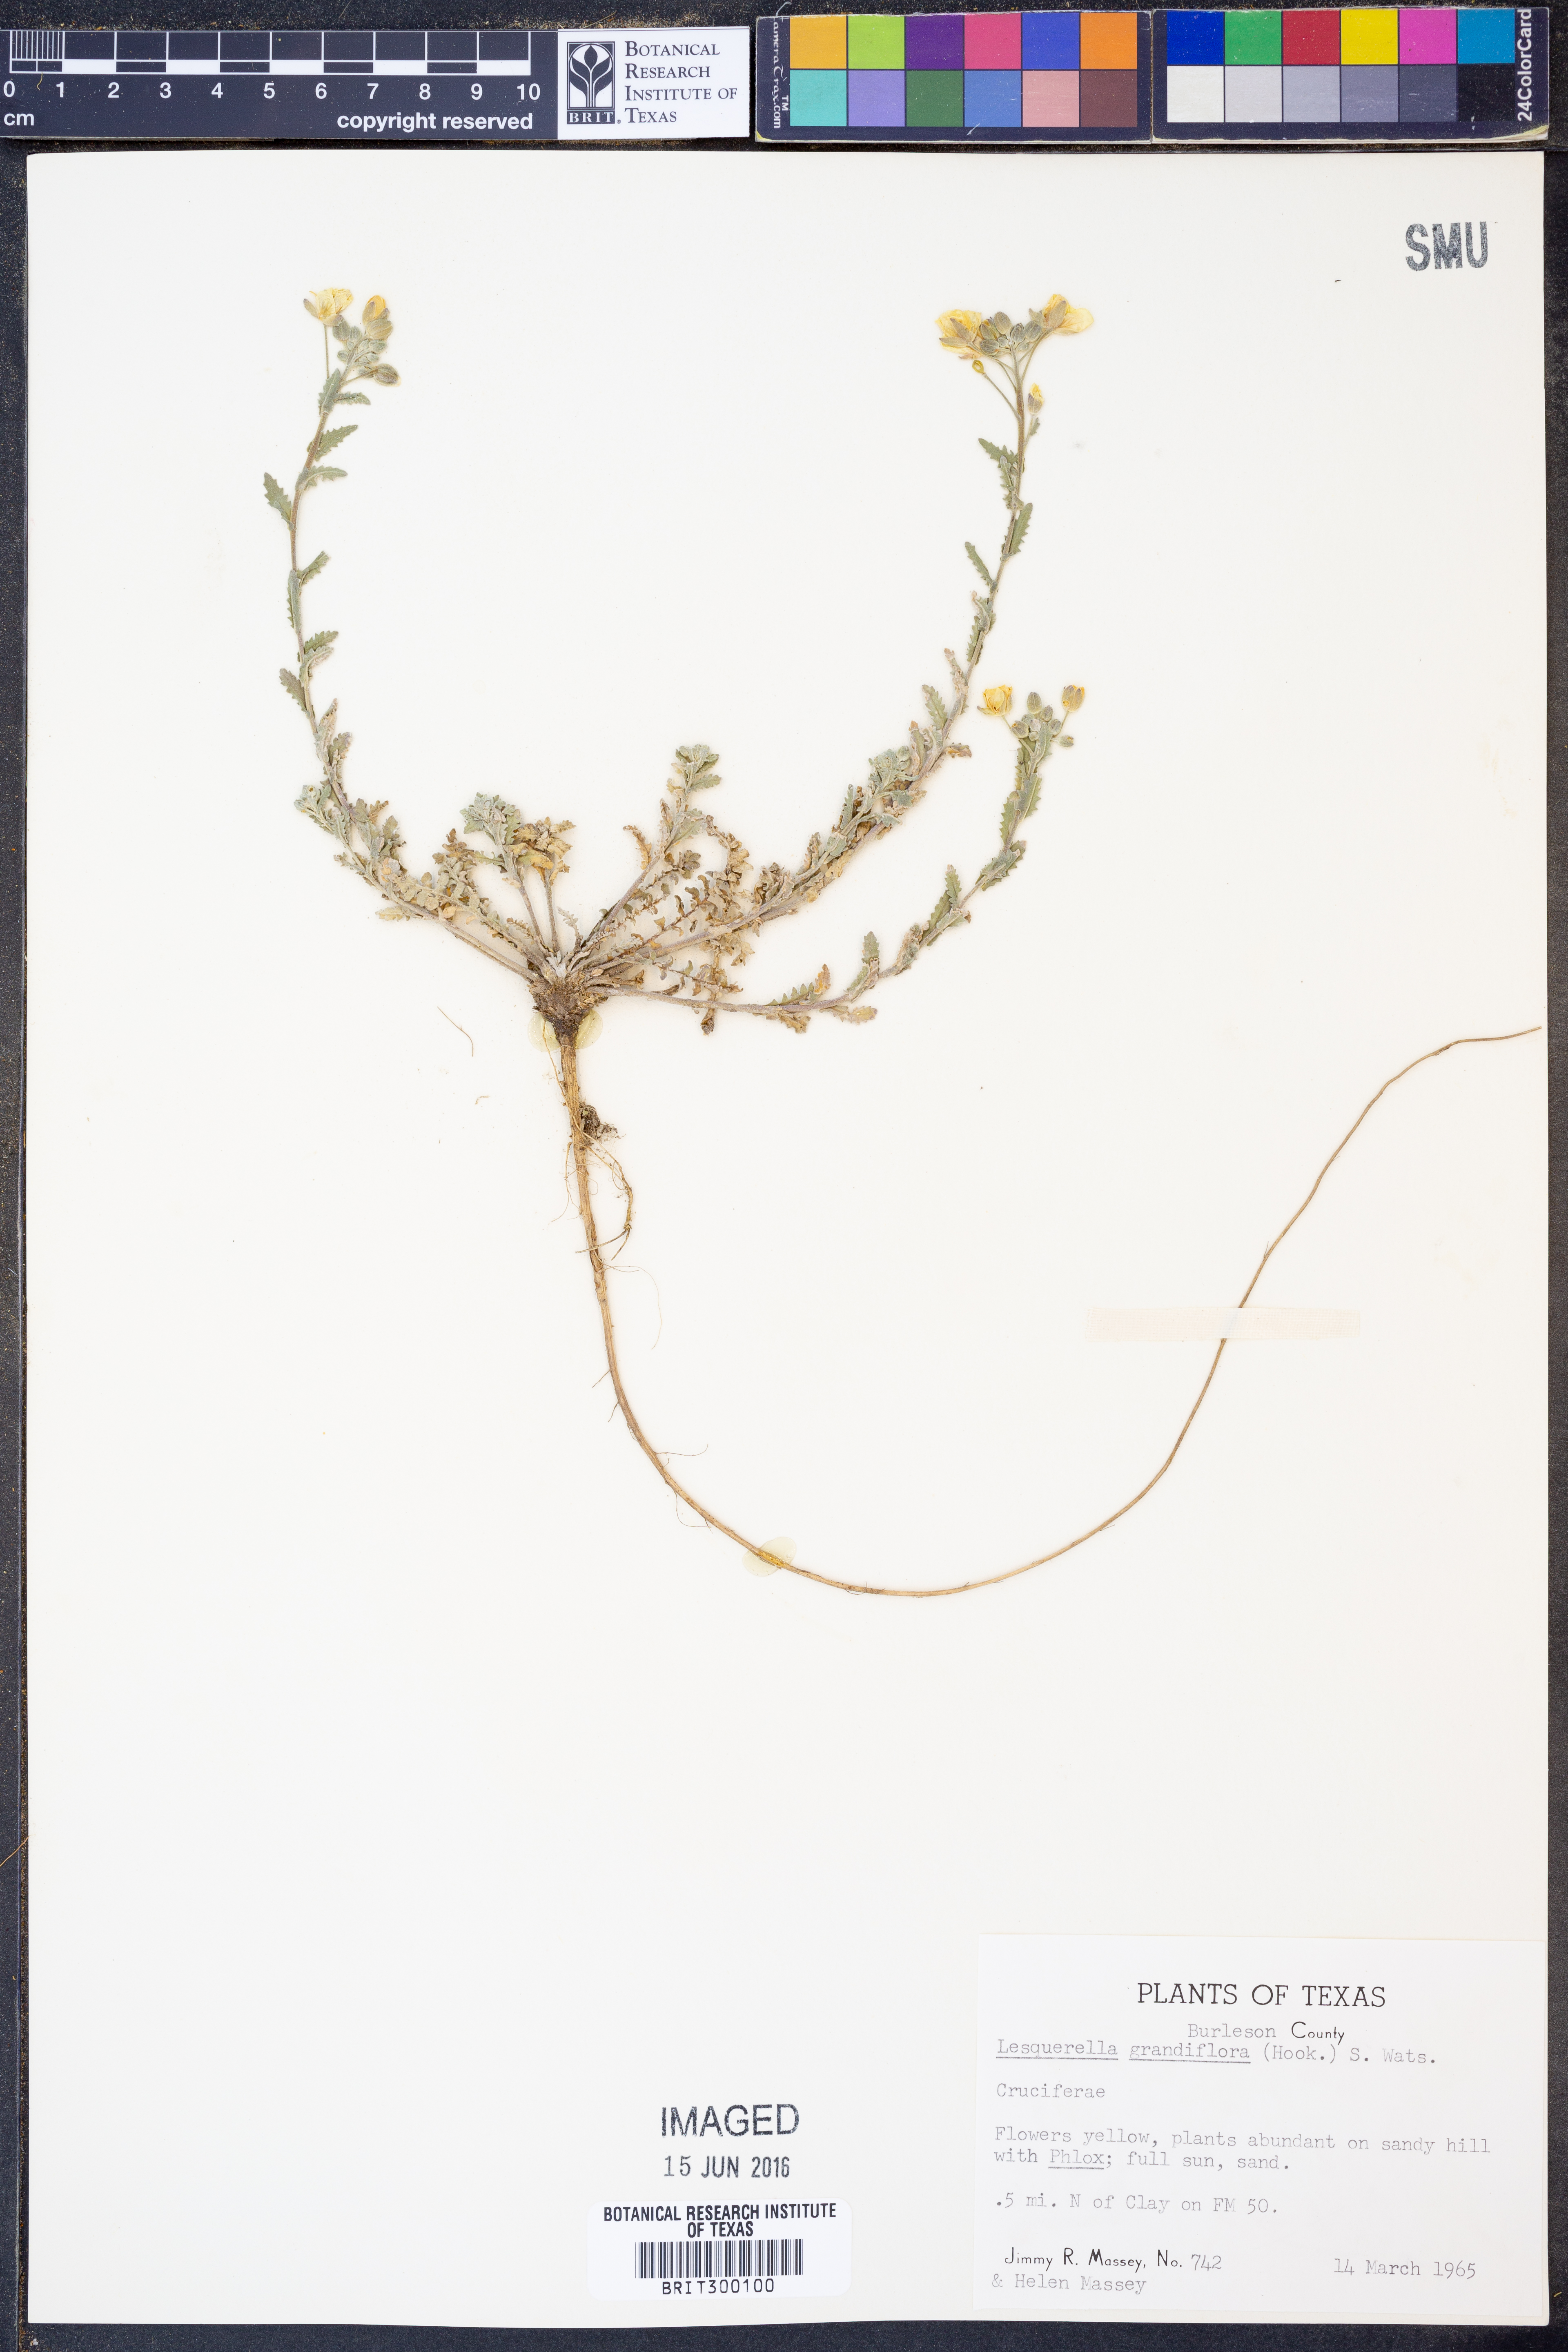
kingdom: Plantae
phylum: Tracheophyta
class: Magnoliopsida
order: Brassicales
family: Brassicaceae
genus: Paysonia
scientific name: Paysonia grandiflora
